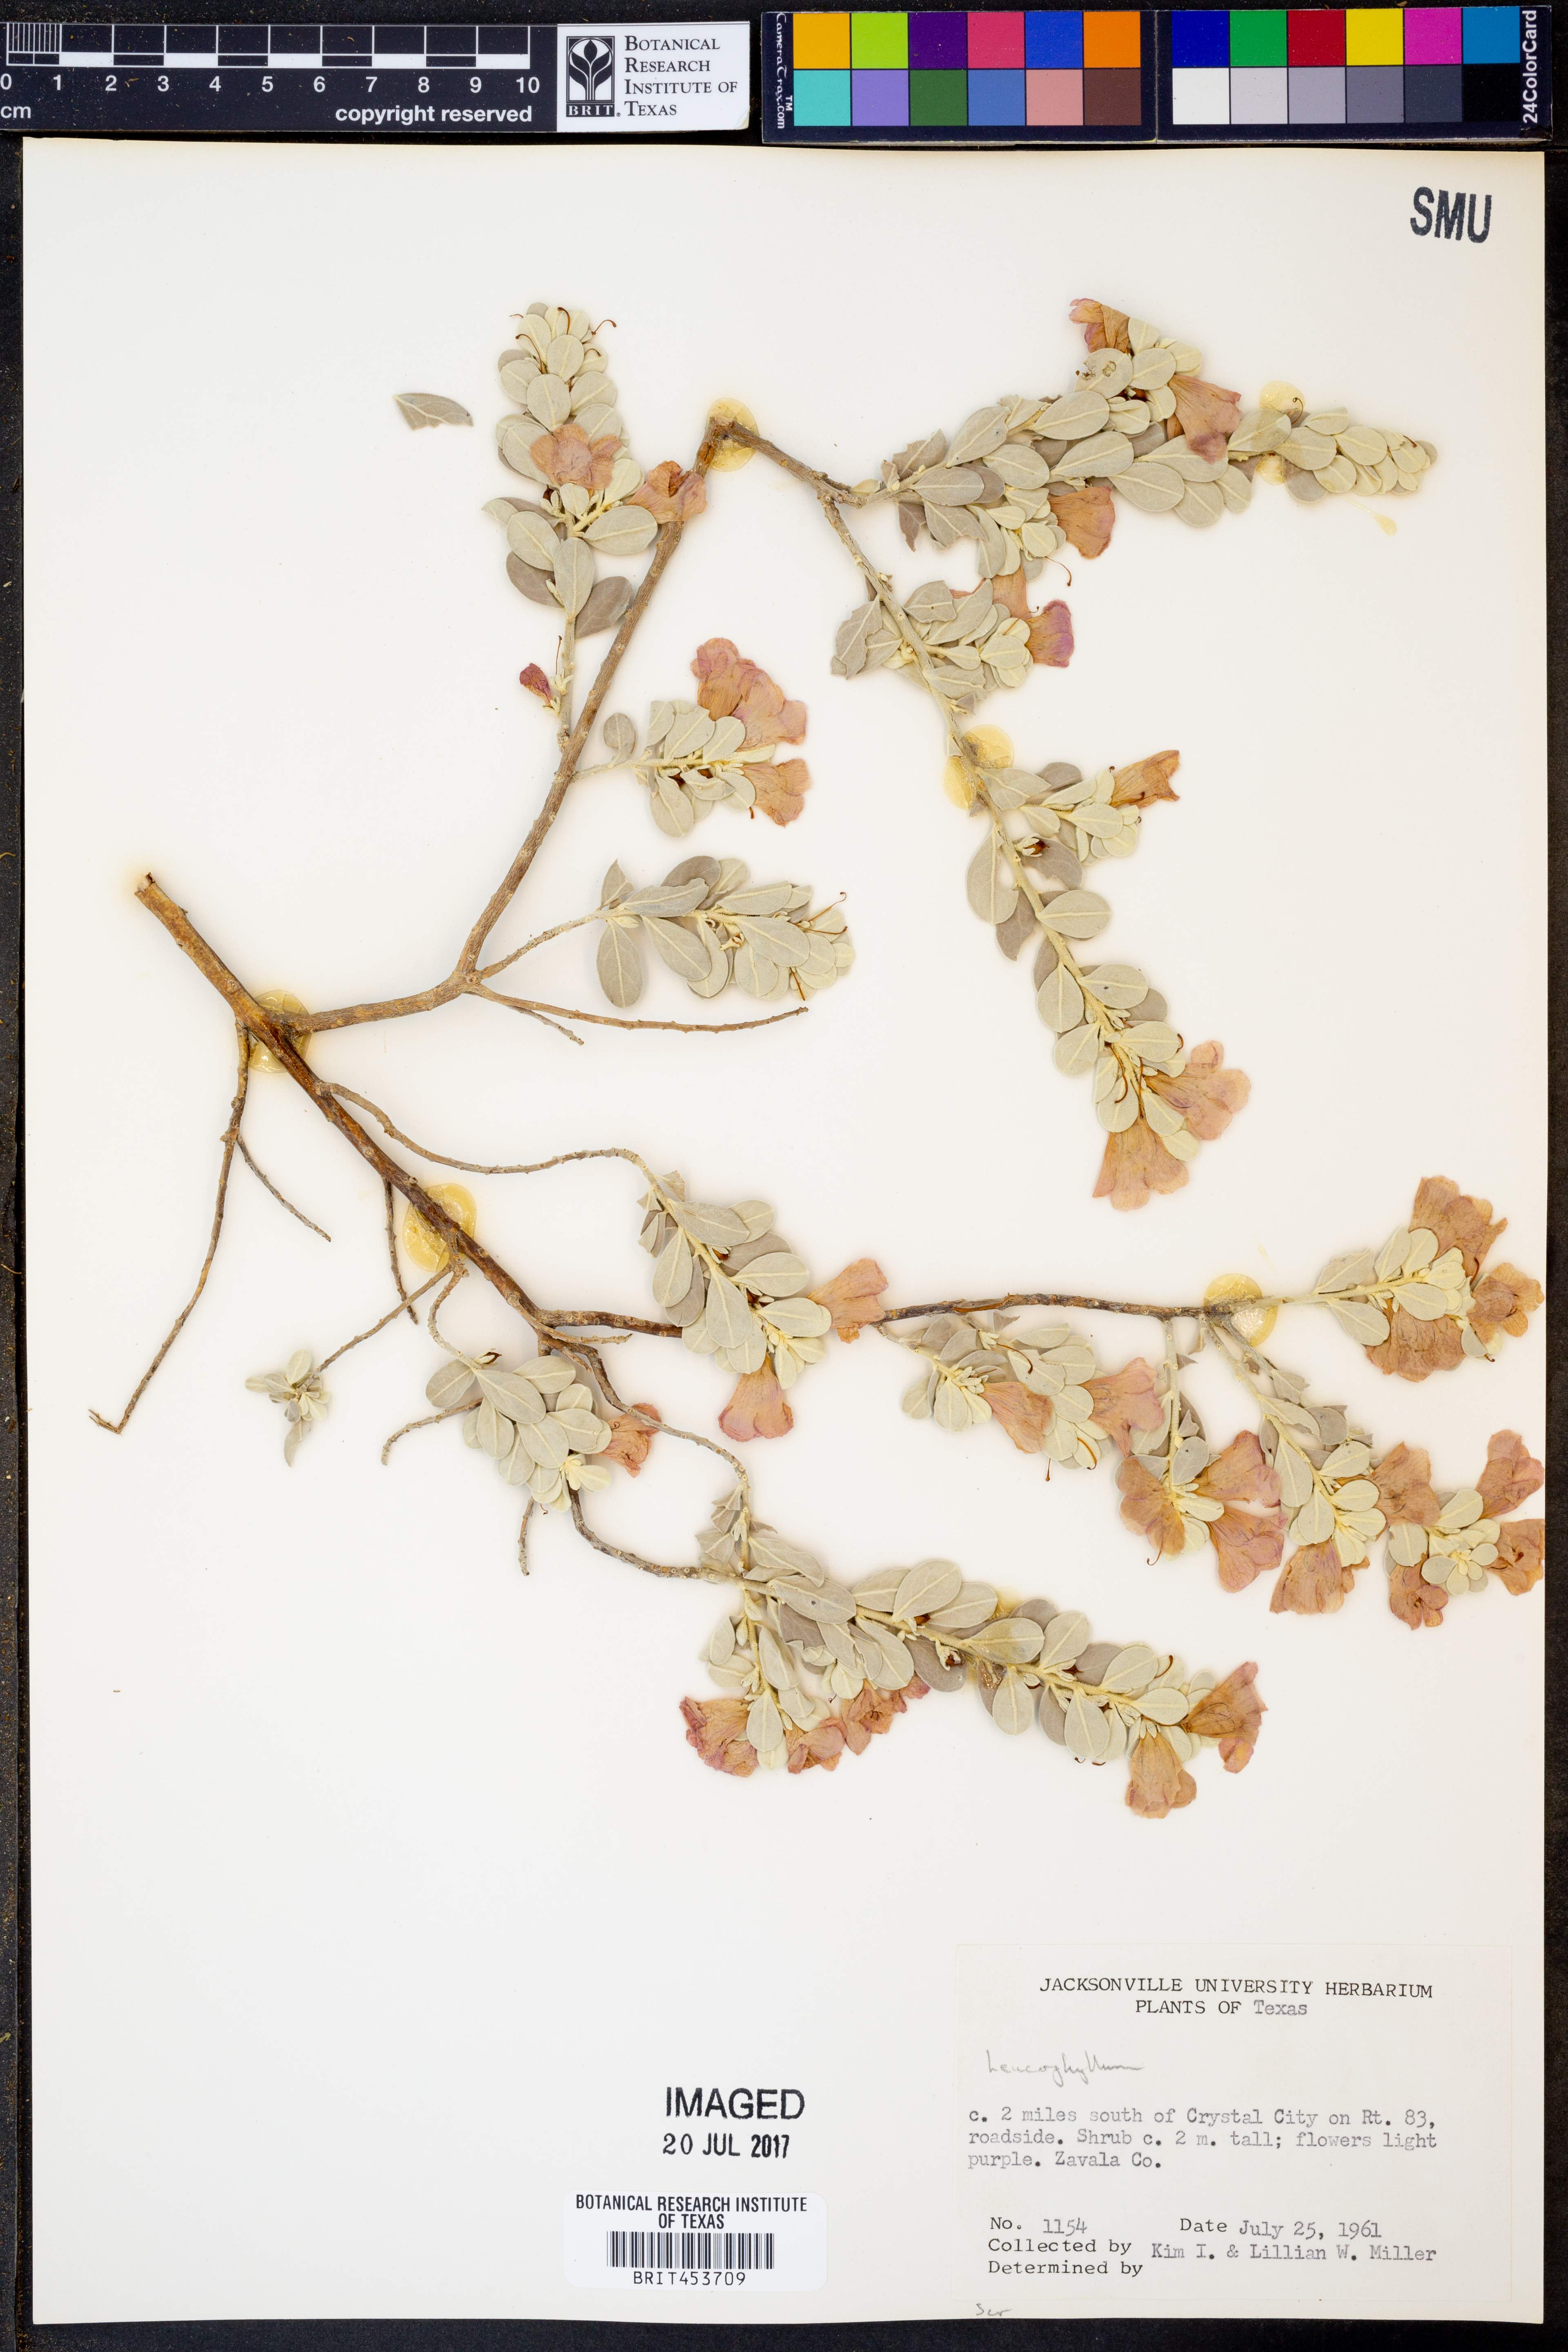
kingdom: Plantae
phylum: Tracheophyta
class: Magnoliopsida
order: Lamiales
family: Scrophulariaceae
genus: Leucophyllum
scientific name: Leucophyllum
